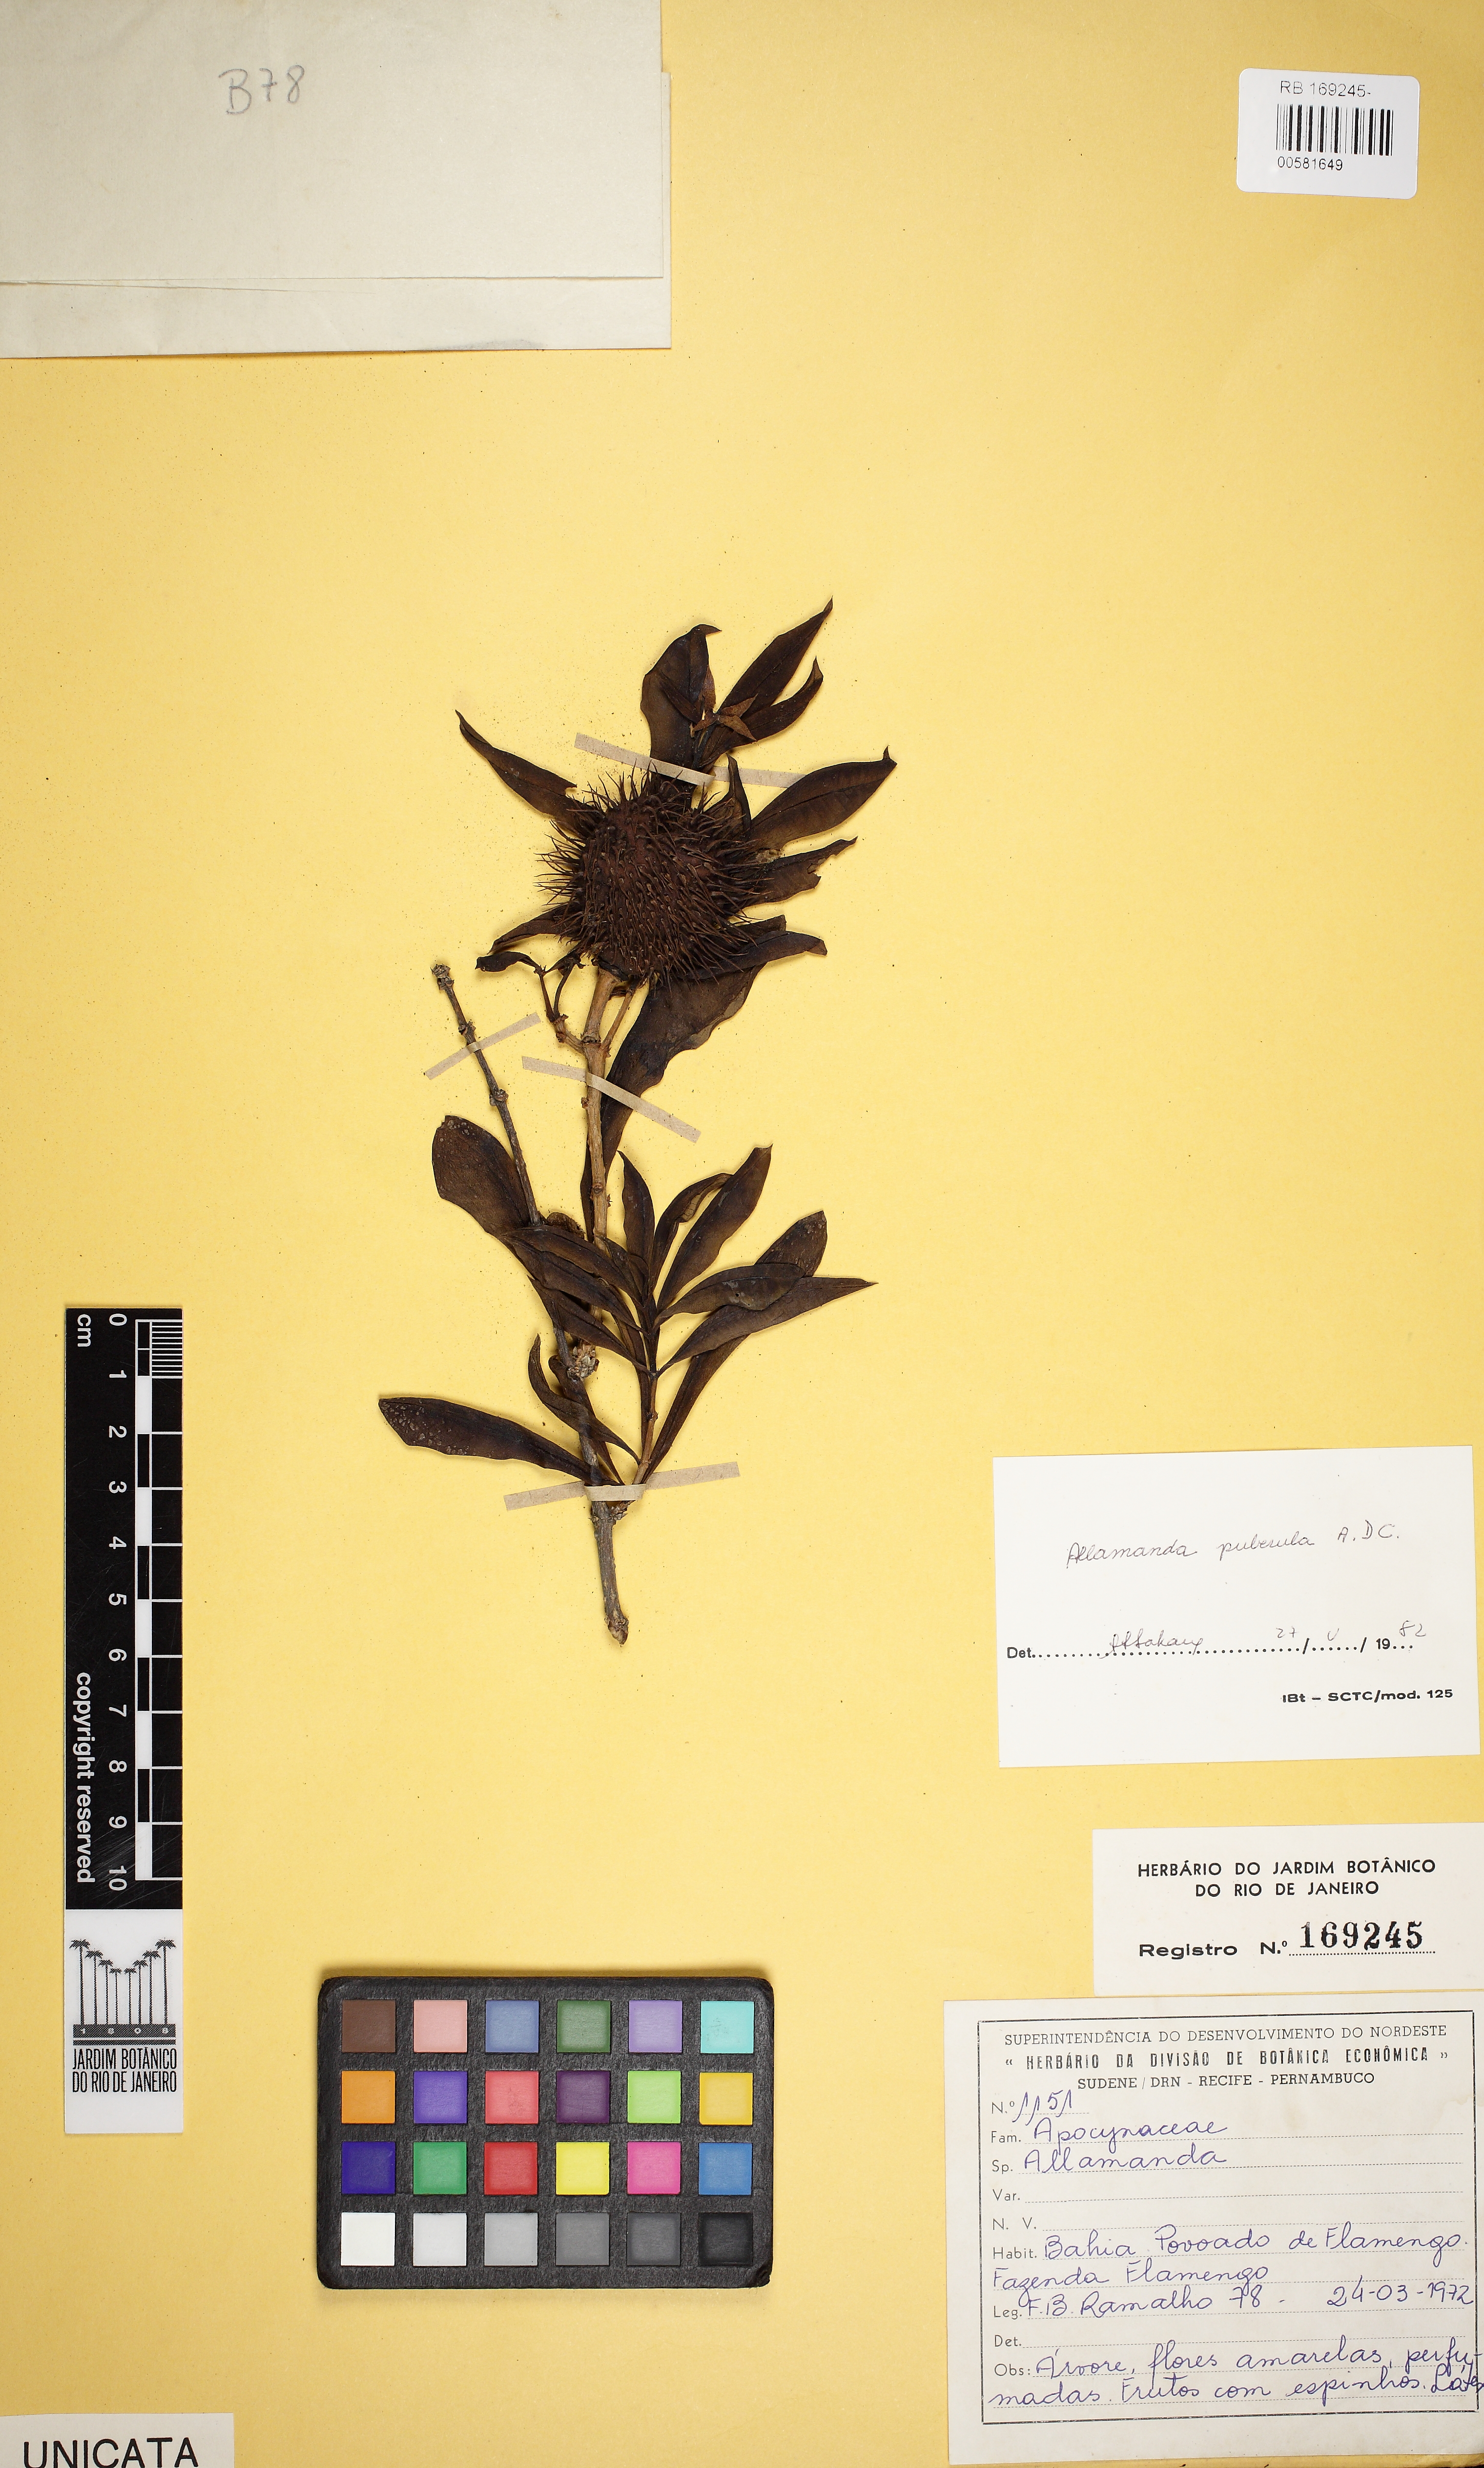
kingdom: Plantae
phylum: Tracheophyta
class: Magnoliopsida
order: Gentianales
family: Apocynaceae
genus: Allamanda
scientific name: Allamanda puberula
